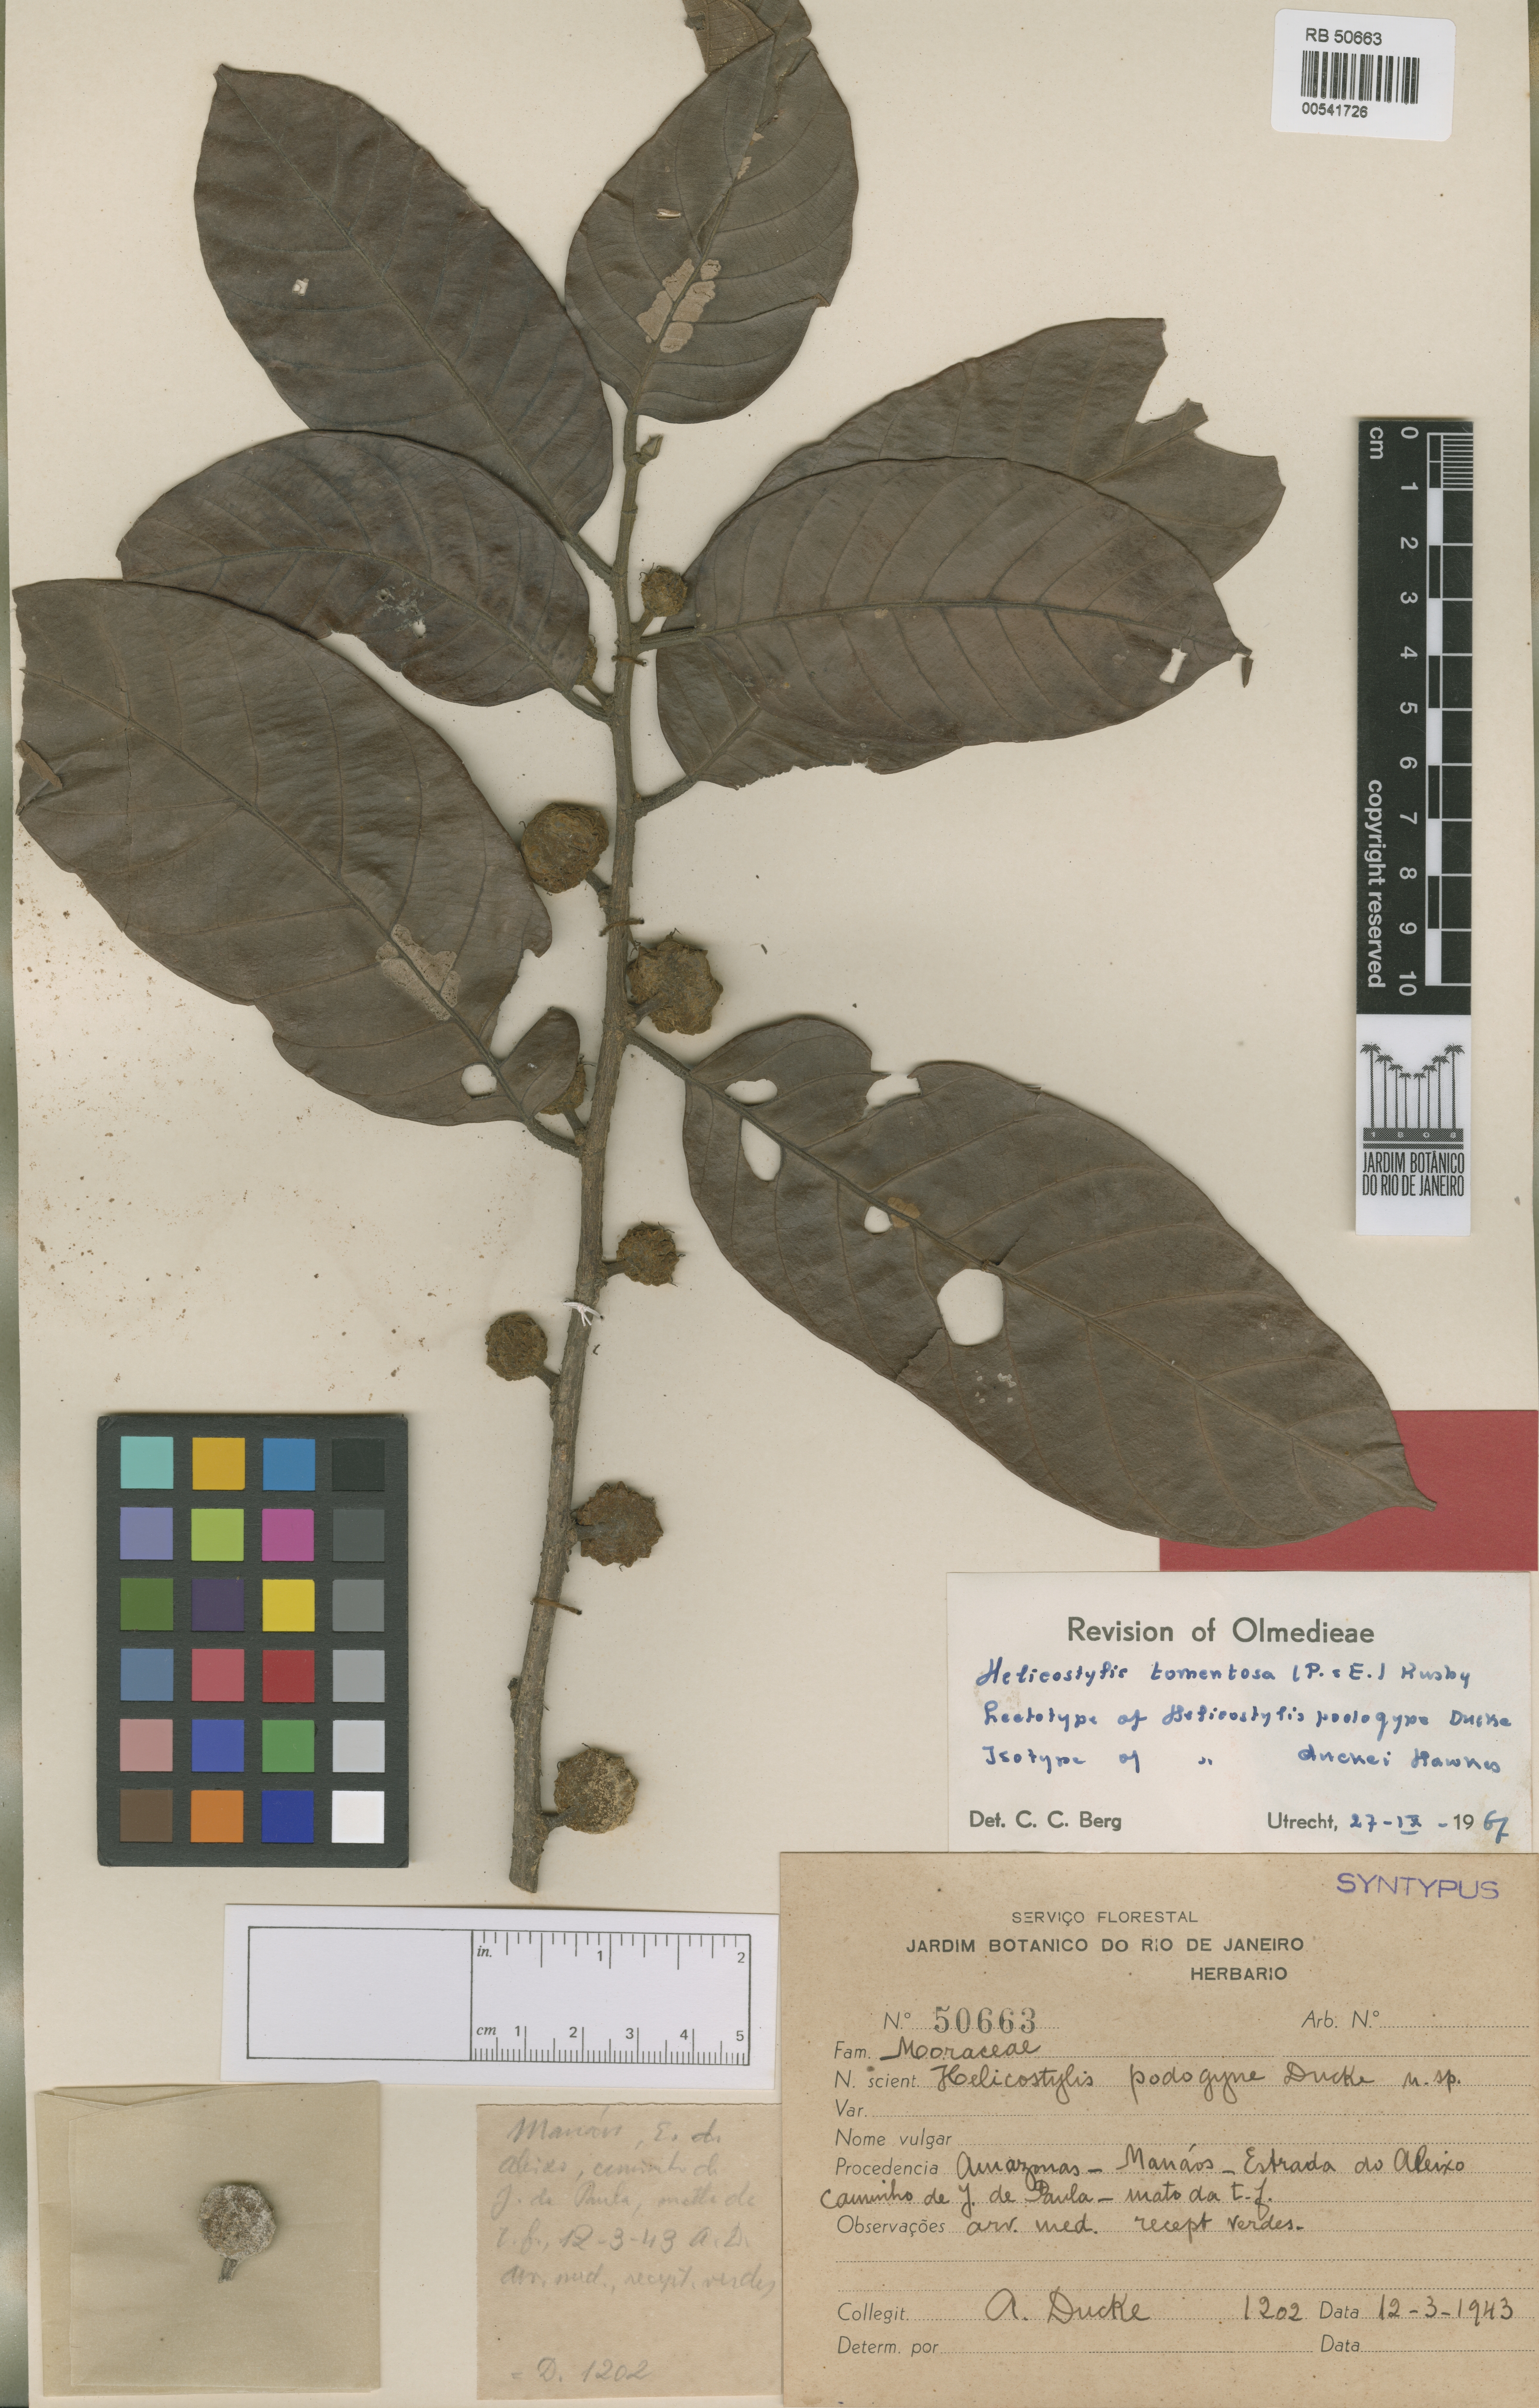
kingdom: Plantae
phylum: Tracheophyta
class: Magnoliopsida
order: Rosales
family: Moraceae
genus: Helicostylis
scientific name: Helicostylis tomentosa
